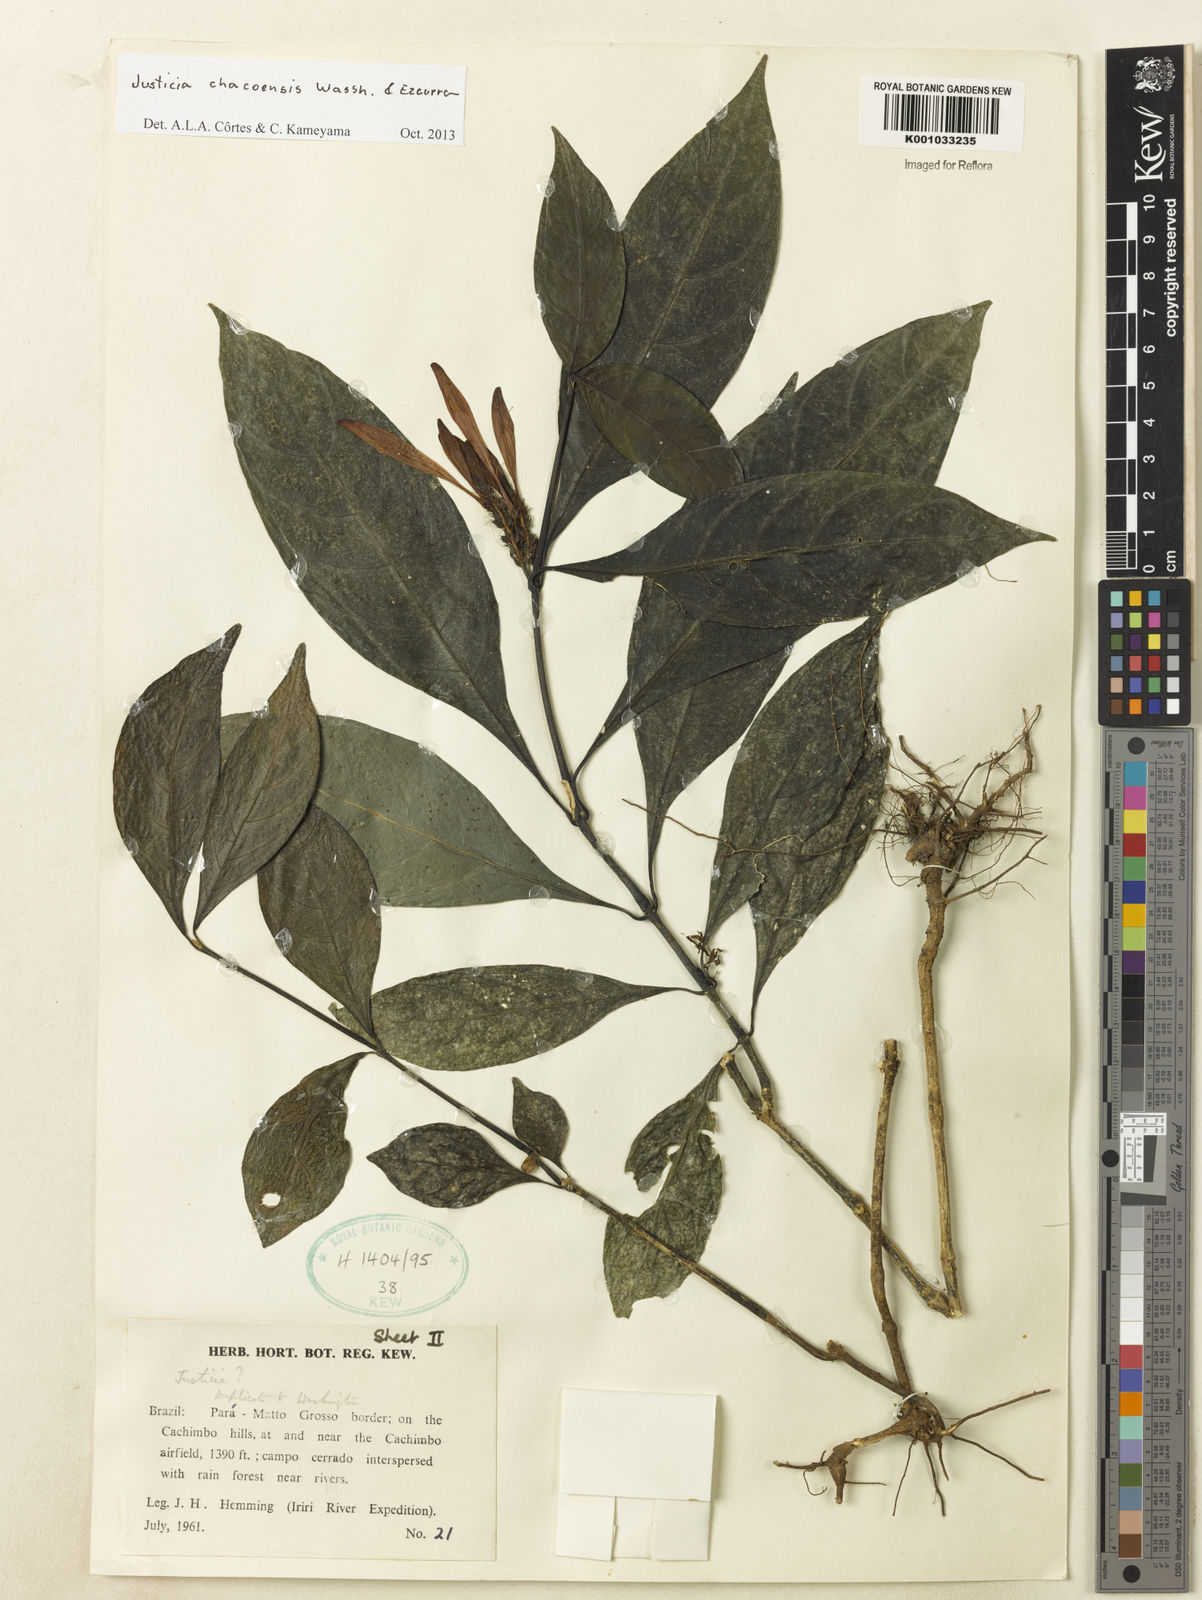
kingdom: Plantae
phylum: Tracheophyta
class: Magnoliopsida
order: Lamiales
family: Acanthaceae
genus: Justicia
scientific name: Justicia chacoensis
